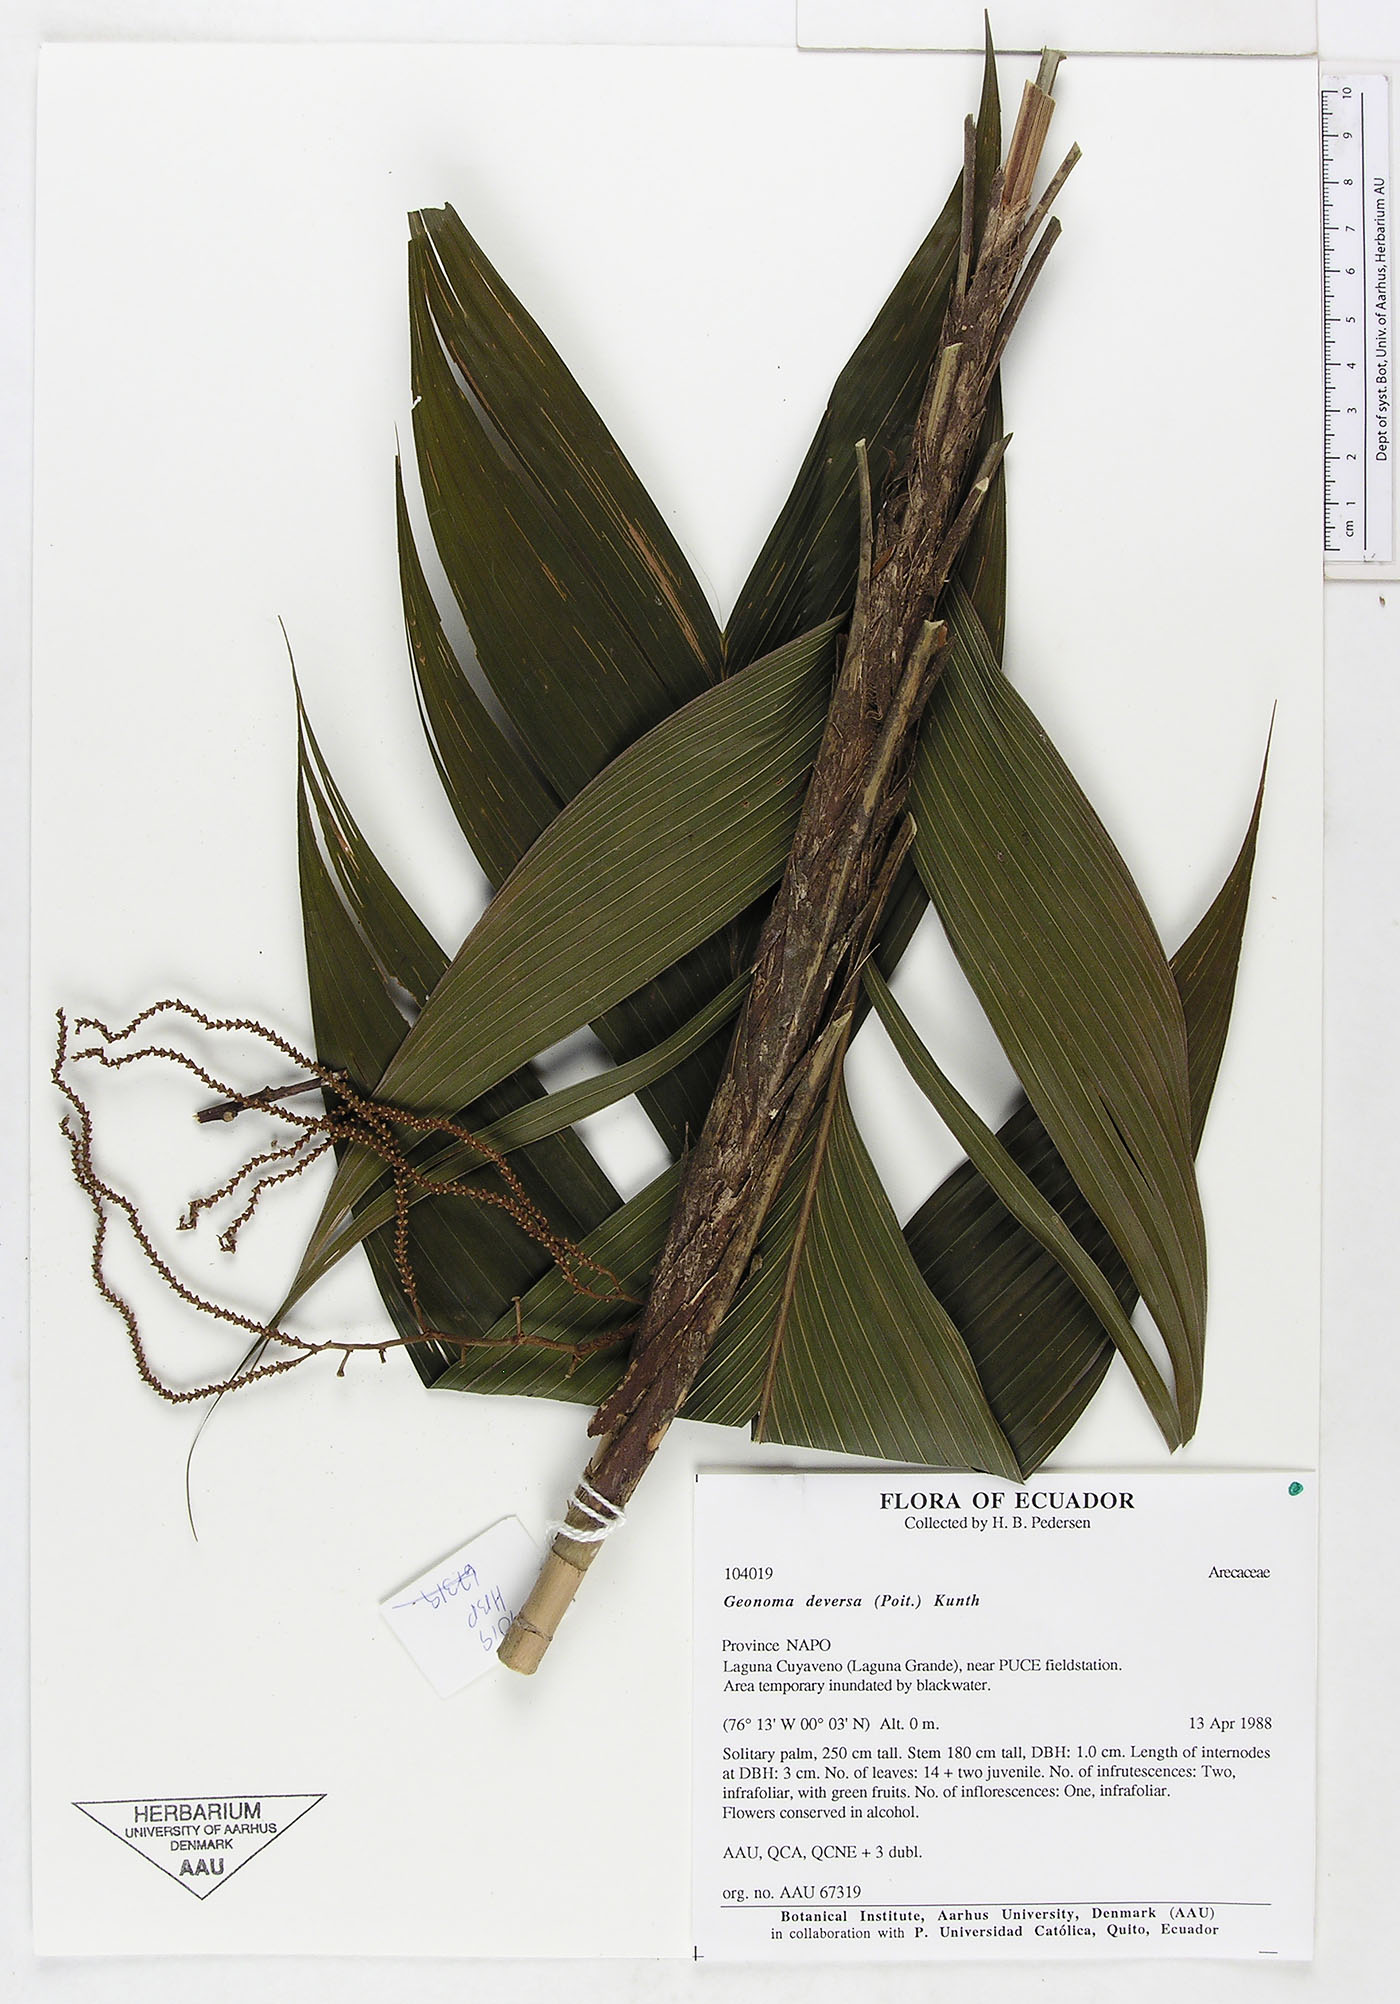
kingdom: Plantae
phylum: Tracheophyta
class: Liliopsida
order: Arecales
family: Arecaceae
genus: Geonoma
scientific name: Geonoma deversa
